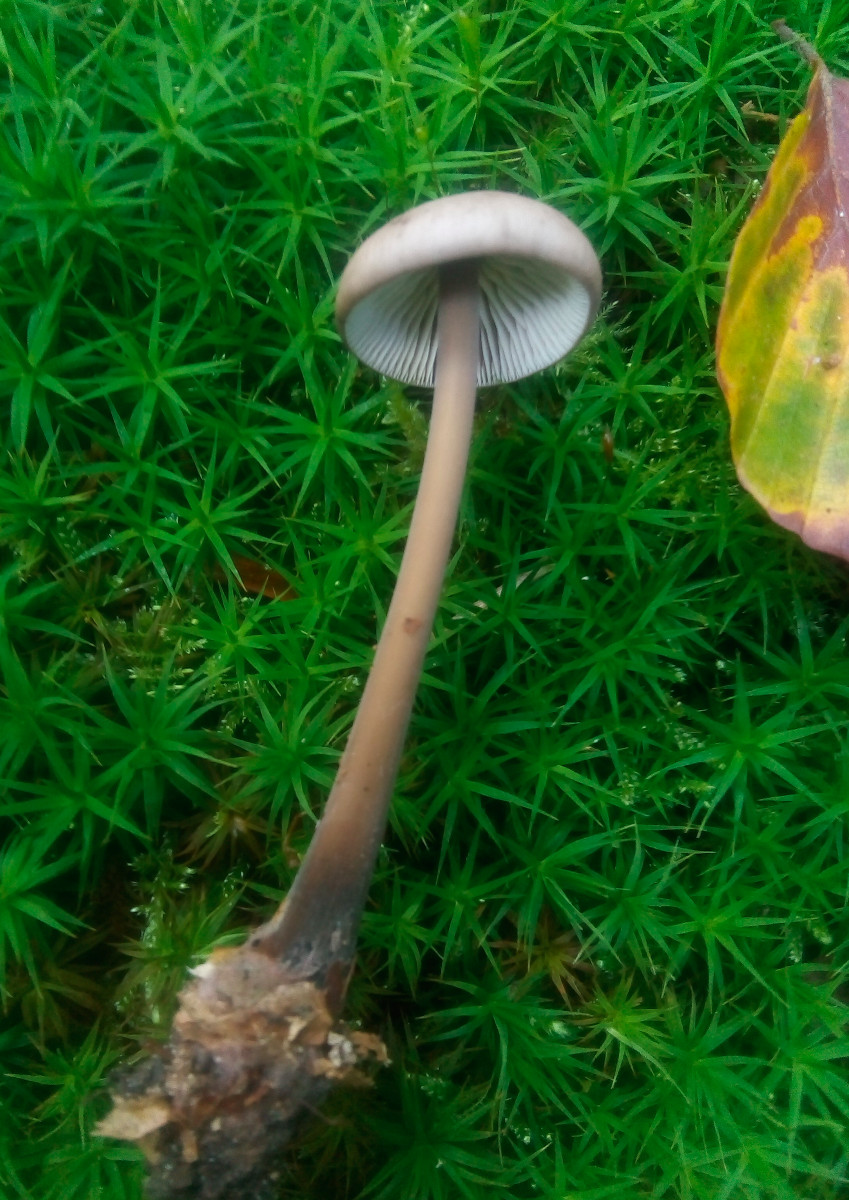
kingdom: Fungi
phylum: Basidiomycota
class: Agaricomycetes
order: Agaricales
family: Omphalotaceae
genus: Mycetinis
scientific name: Mycetinis alliaceus
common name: stor løghat
